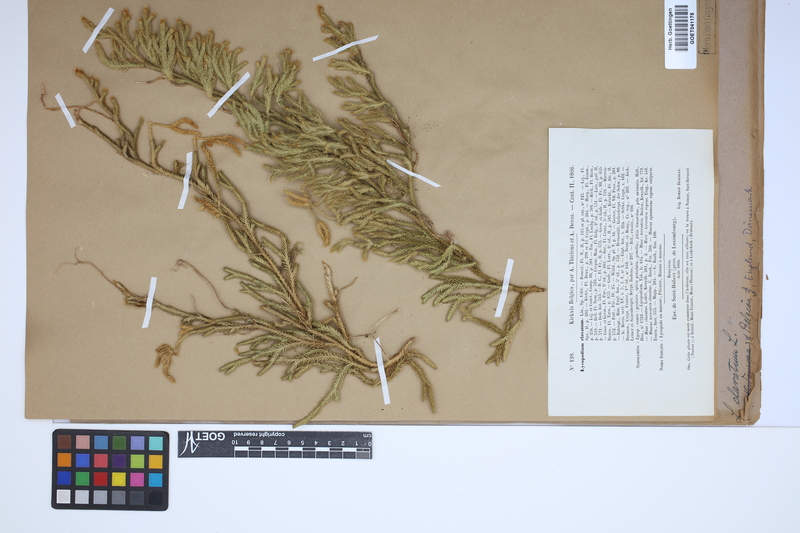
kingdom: Plantae
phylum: Tracheophyta
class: Lycopodiopsida
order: Lycopodiales
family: Lycopodiaceae
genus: Lycopodium
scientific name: Lycopodium clavatum
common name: Stag's-horn clubmoss
